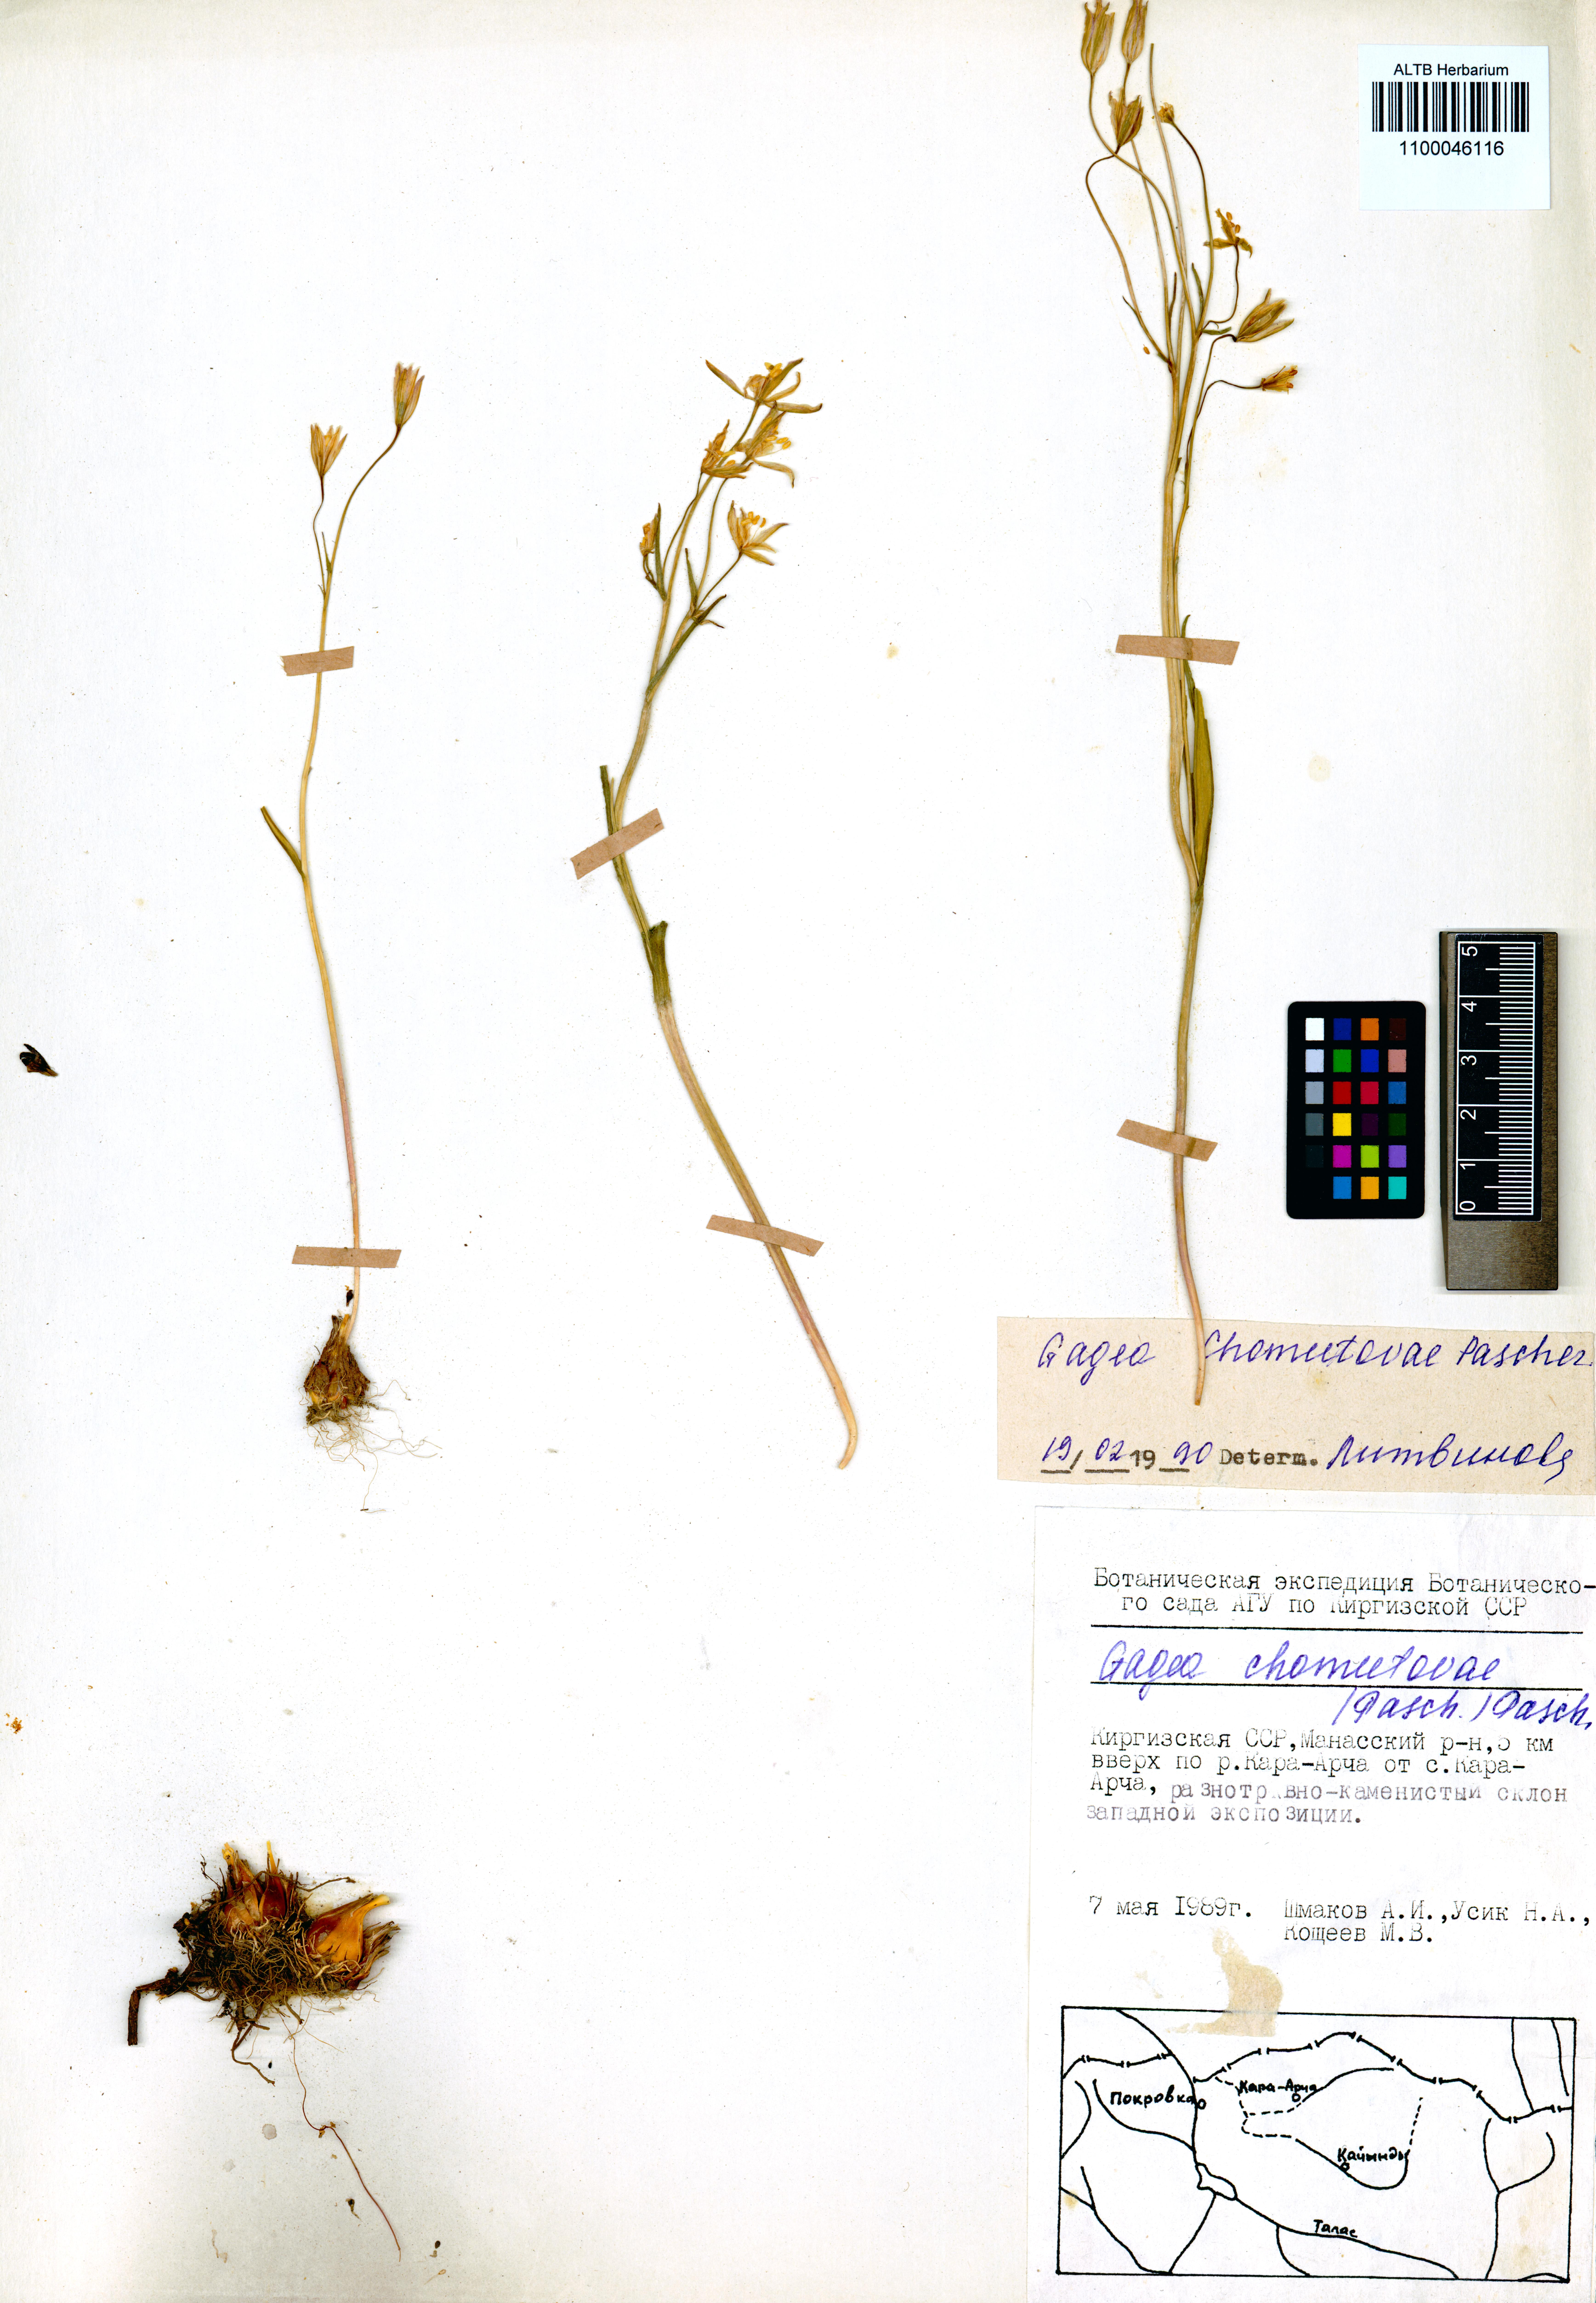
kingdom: Plantae
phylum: Tracheophyta
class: Liliopsida
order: Liliales
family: Liliaceae
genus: Gagea
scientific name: Gagea chomutowae
